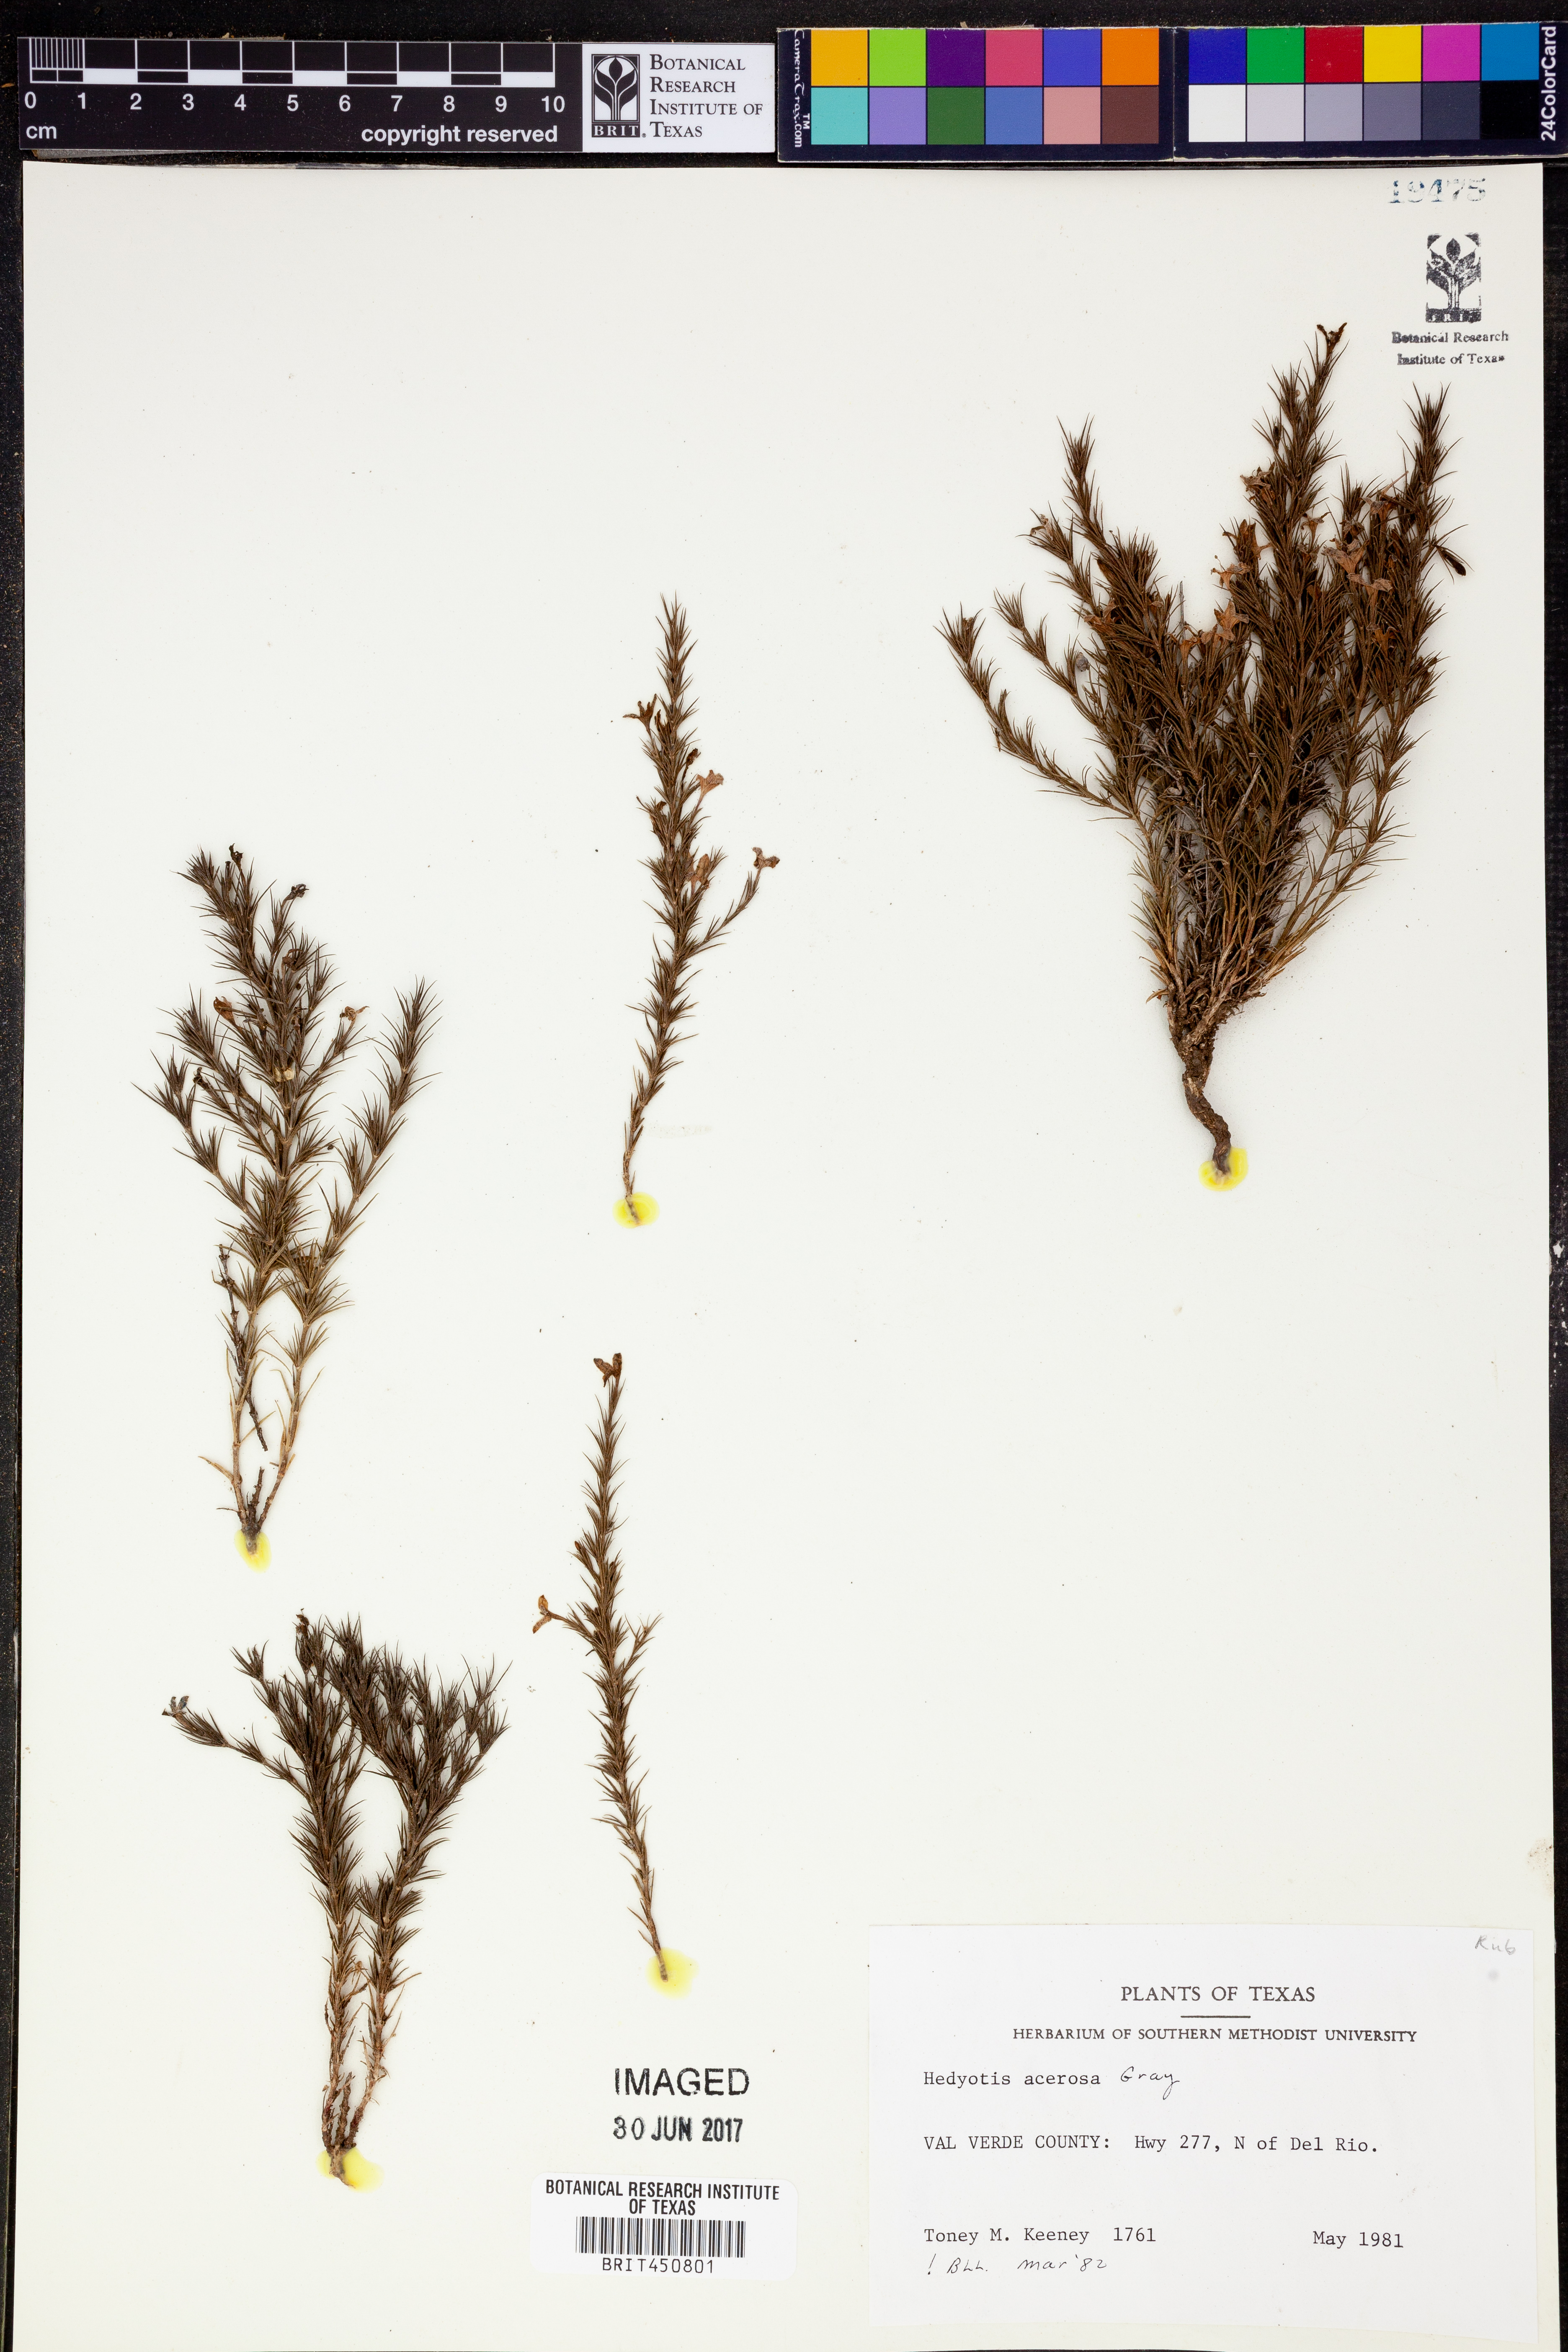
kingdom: Plantae
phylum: Tracheophyta
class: Magnoliopsida
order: Gentianales
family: Rubiaceae
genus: Houstonia
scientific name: Houstonia acerosa
